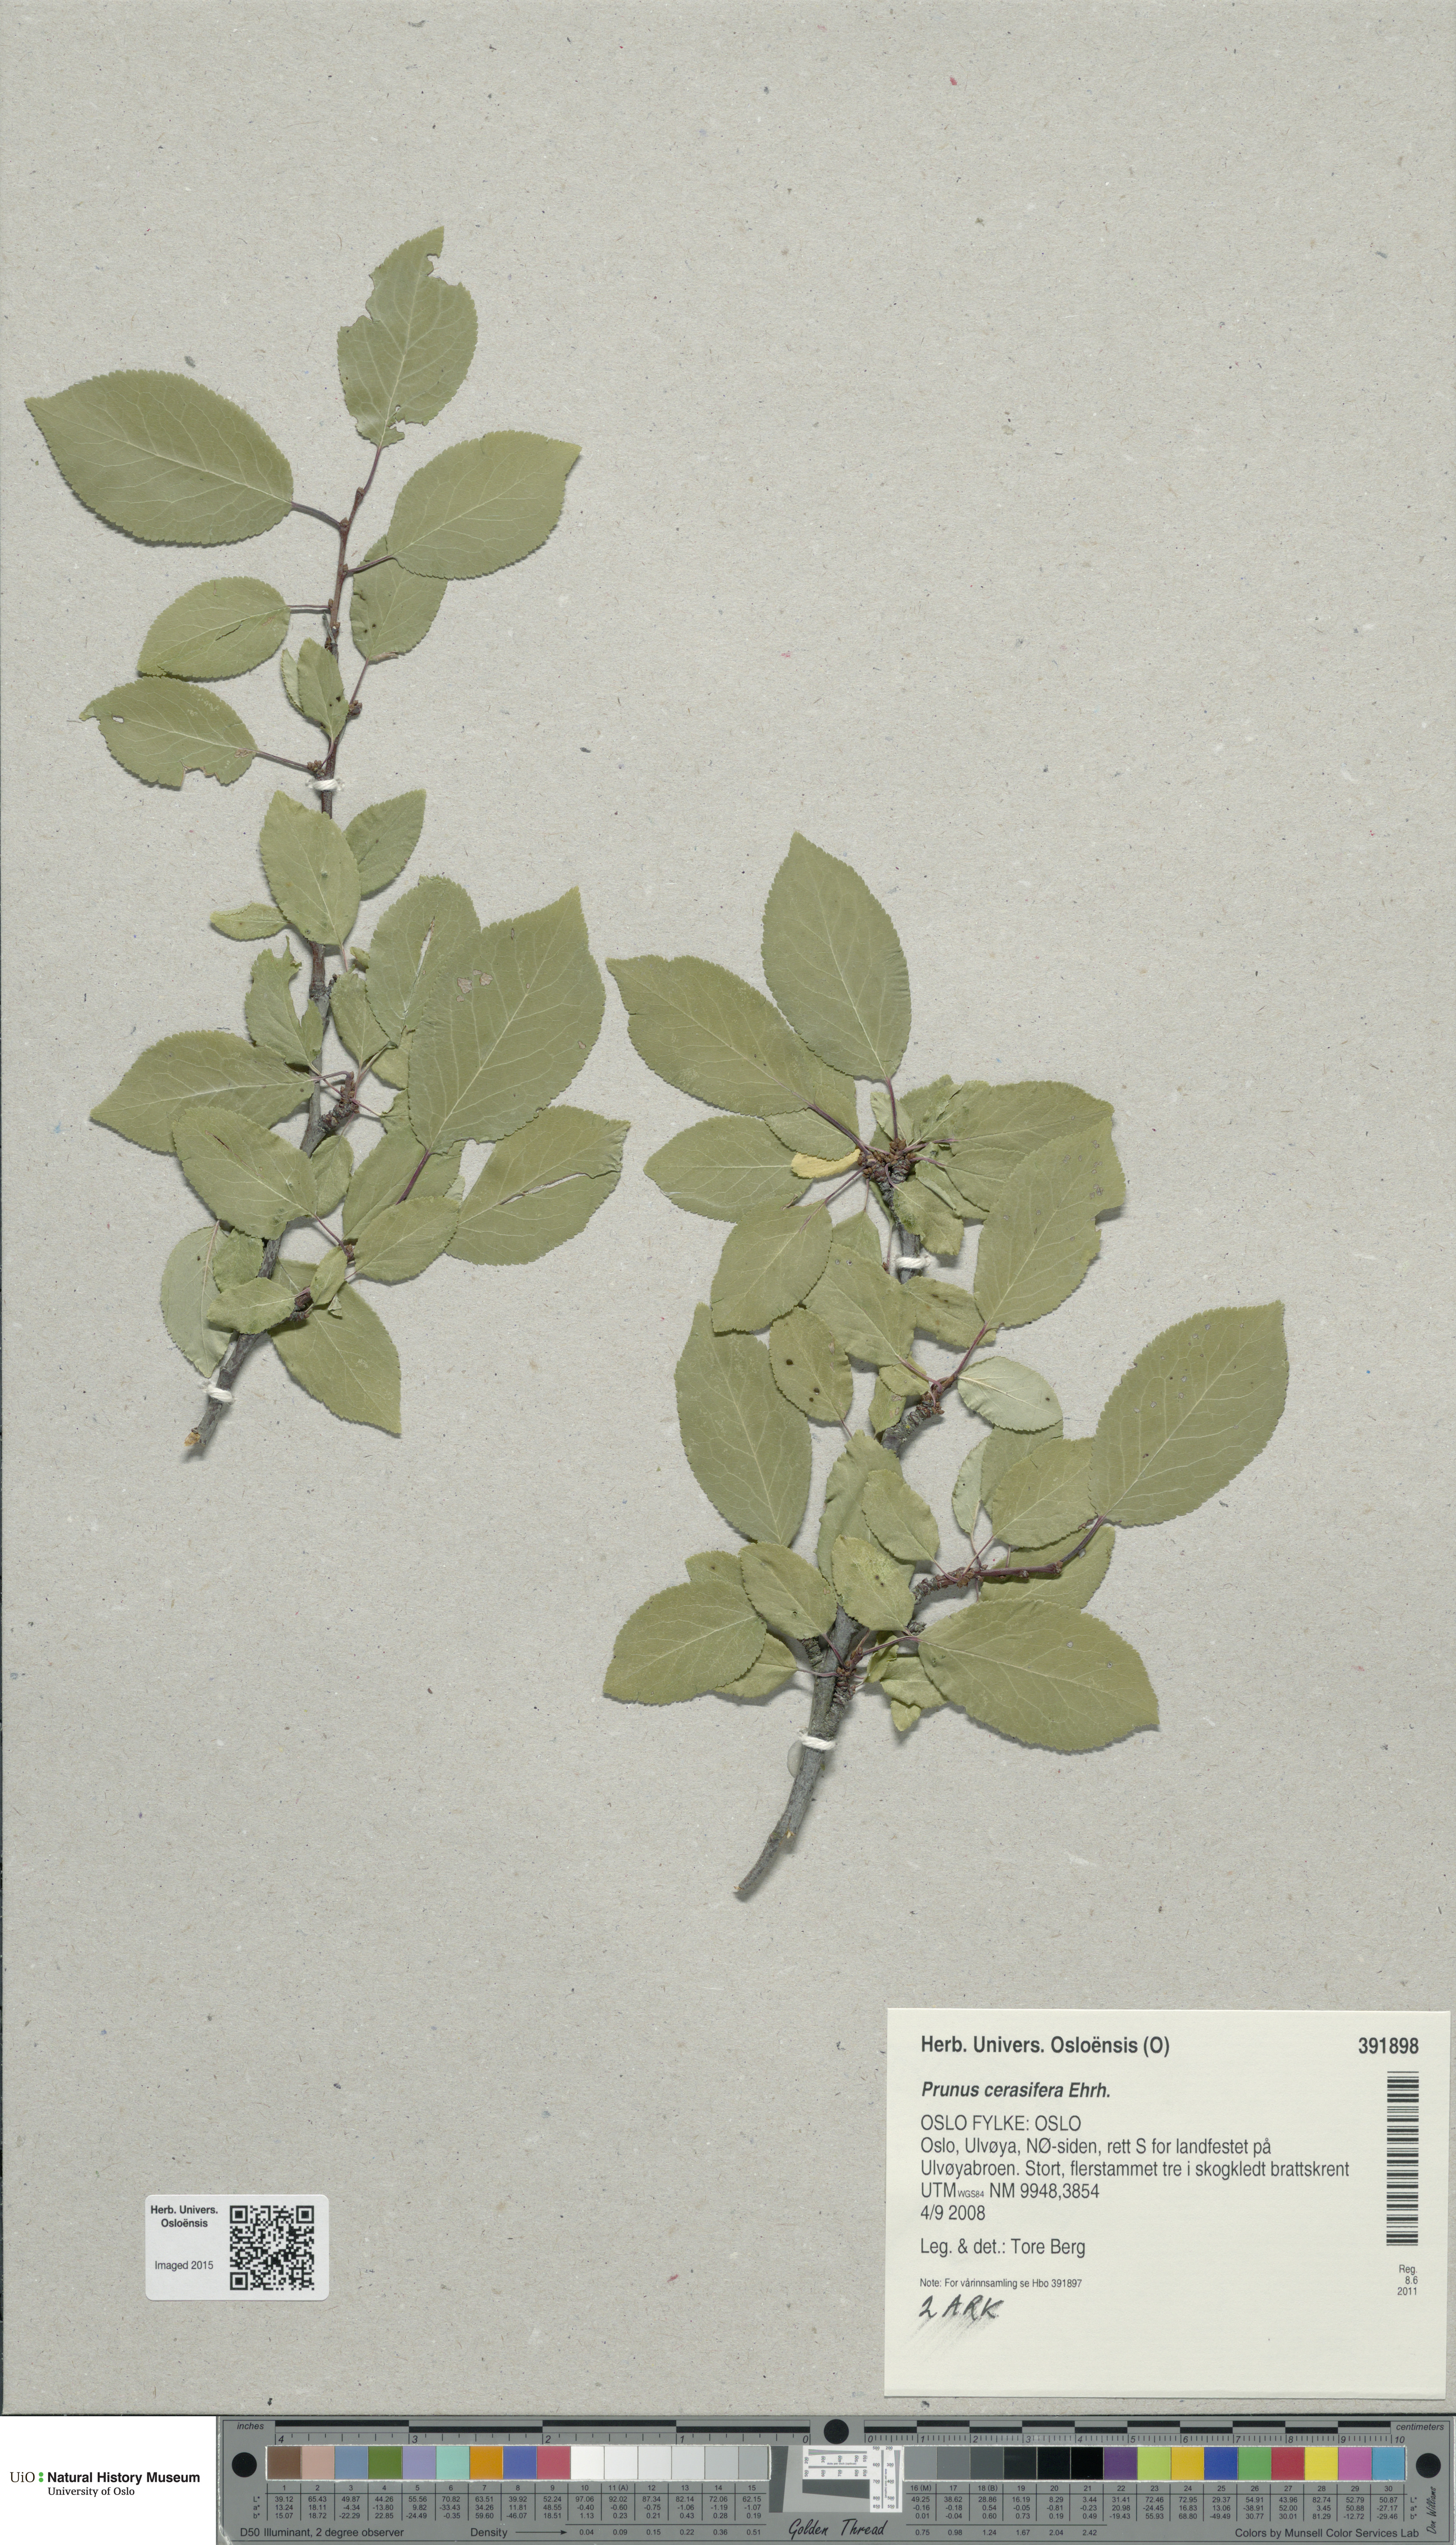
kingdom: Plantae
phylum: Tracheophyta
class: Magnoliopsida
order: Rosales
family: Rosaceae
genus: Prunus
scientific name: Prunus cerasifera
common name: Cherry plum
